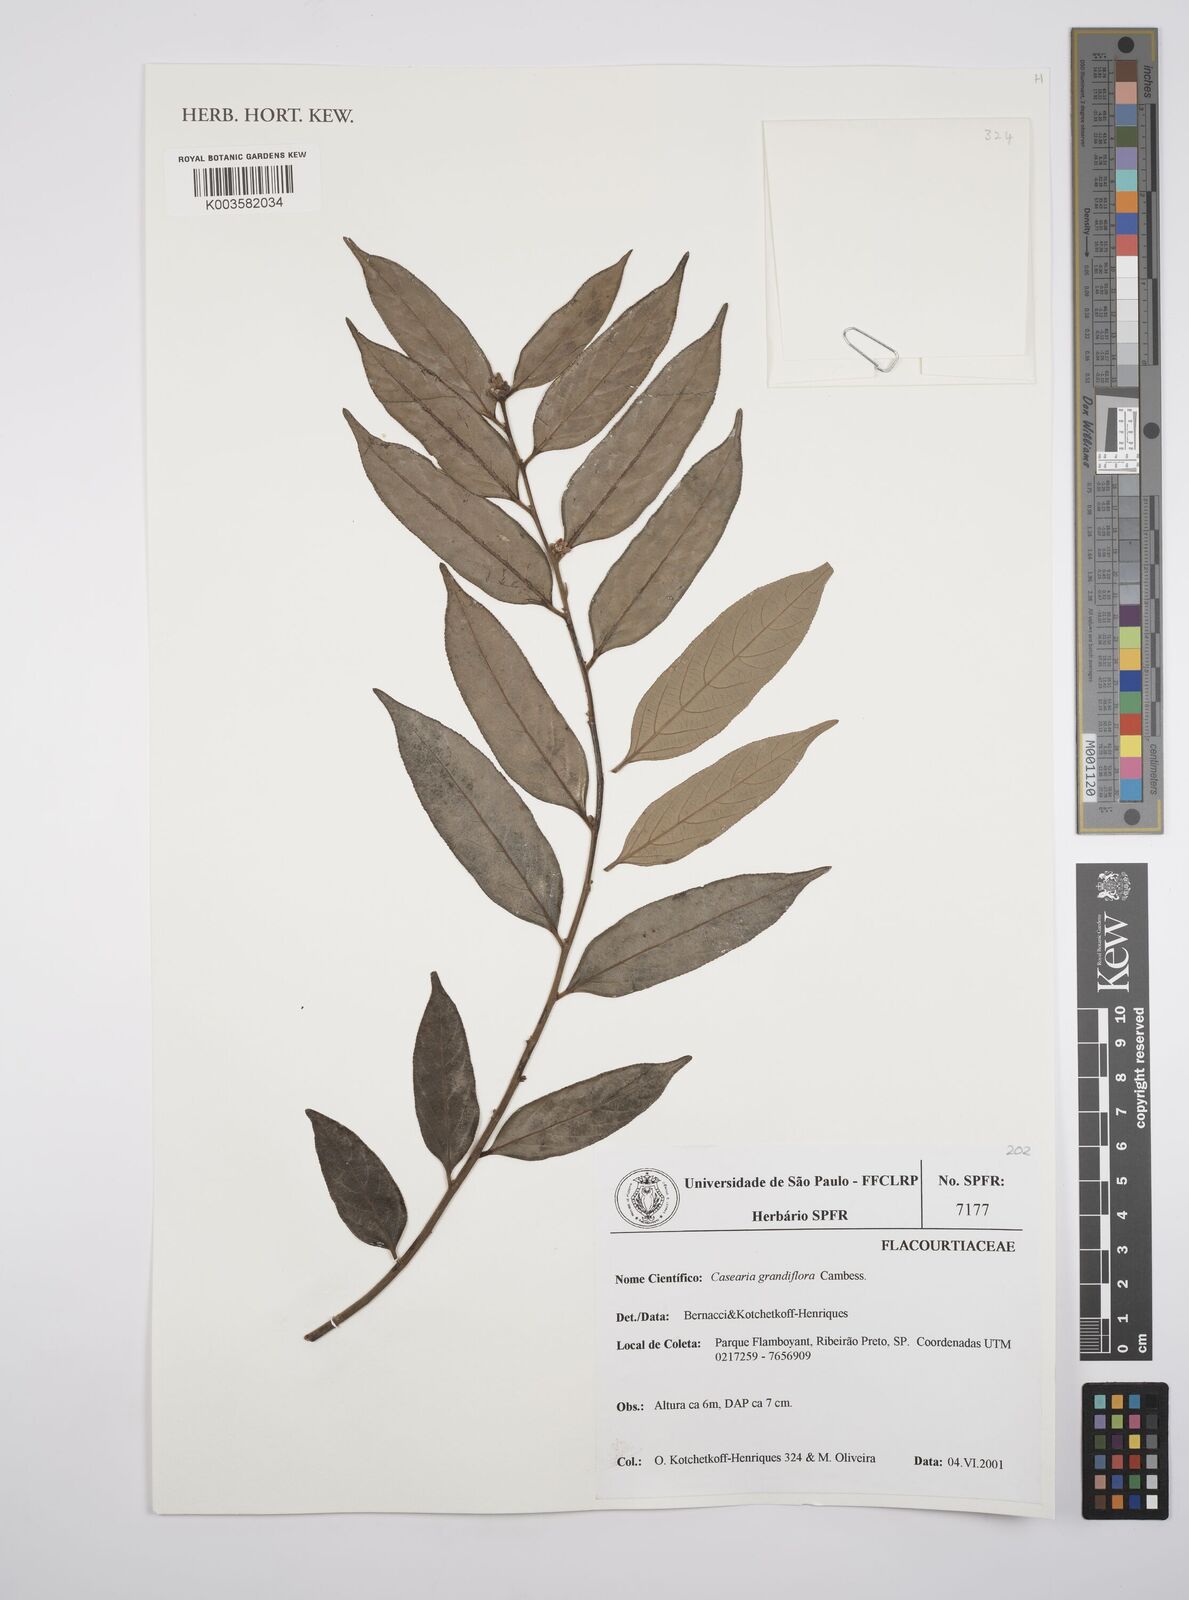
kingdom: Plantae
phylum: Tracheophyta
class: Magnoliopsida
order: Malpighiales
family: Salicaceae
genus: Casearia
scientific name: Casearia grandiflora
